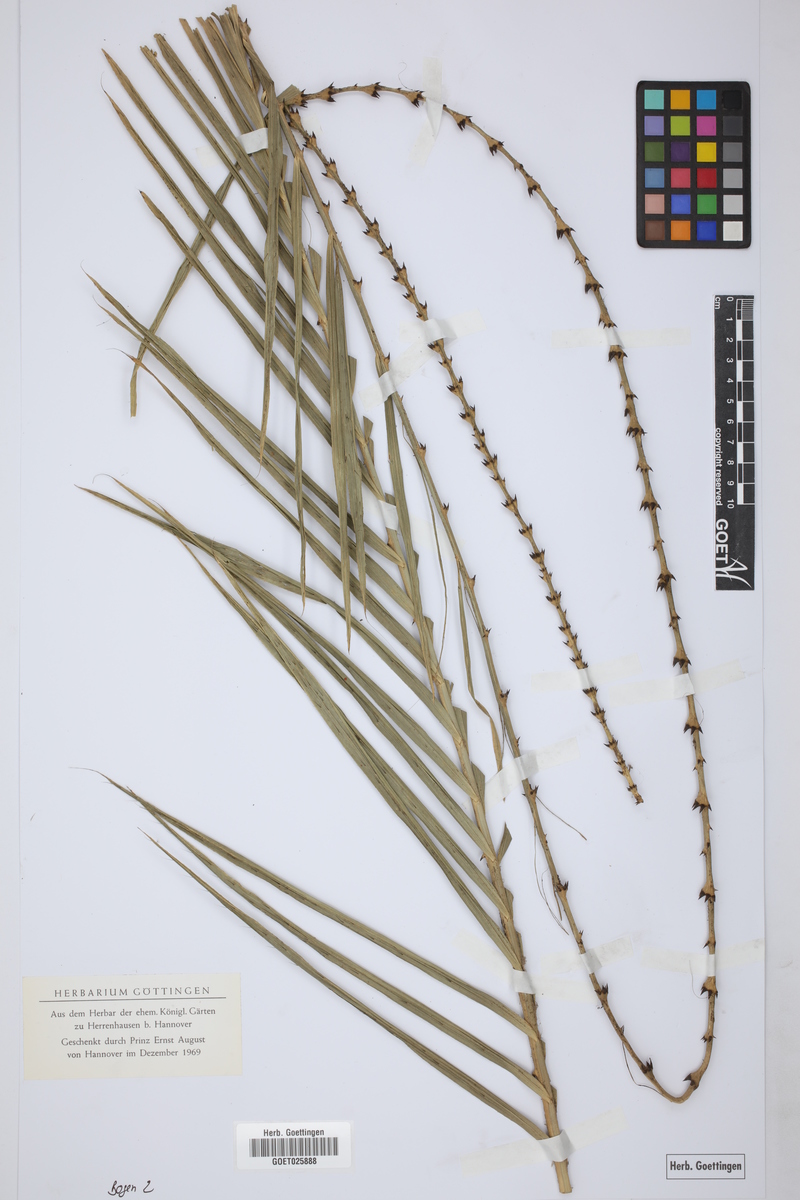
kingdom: Plantae
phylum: Tracheophyta
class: Liliopsida
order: Arecales
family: Arecaceae
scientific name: Arecaceae
